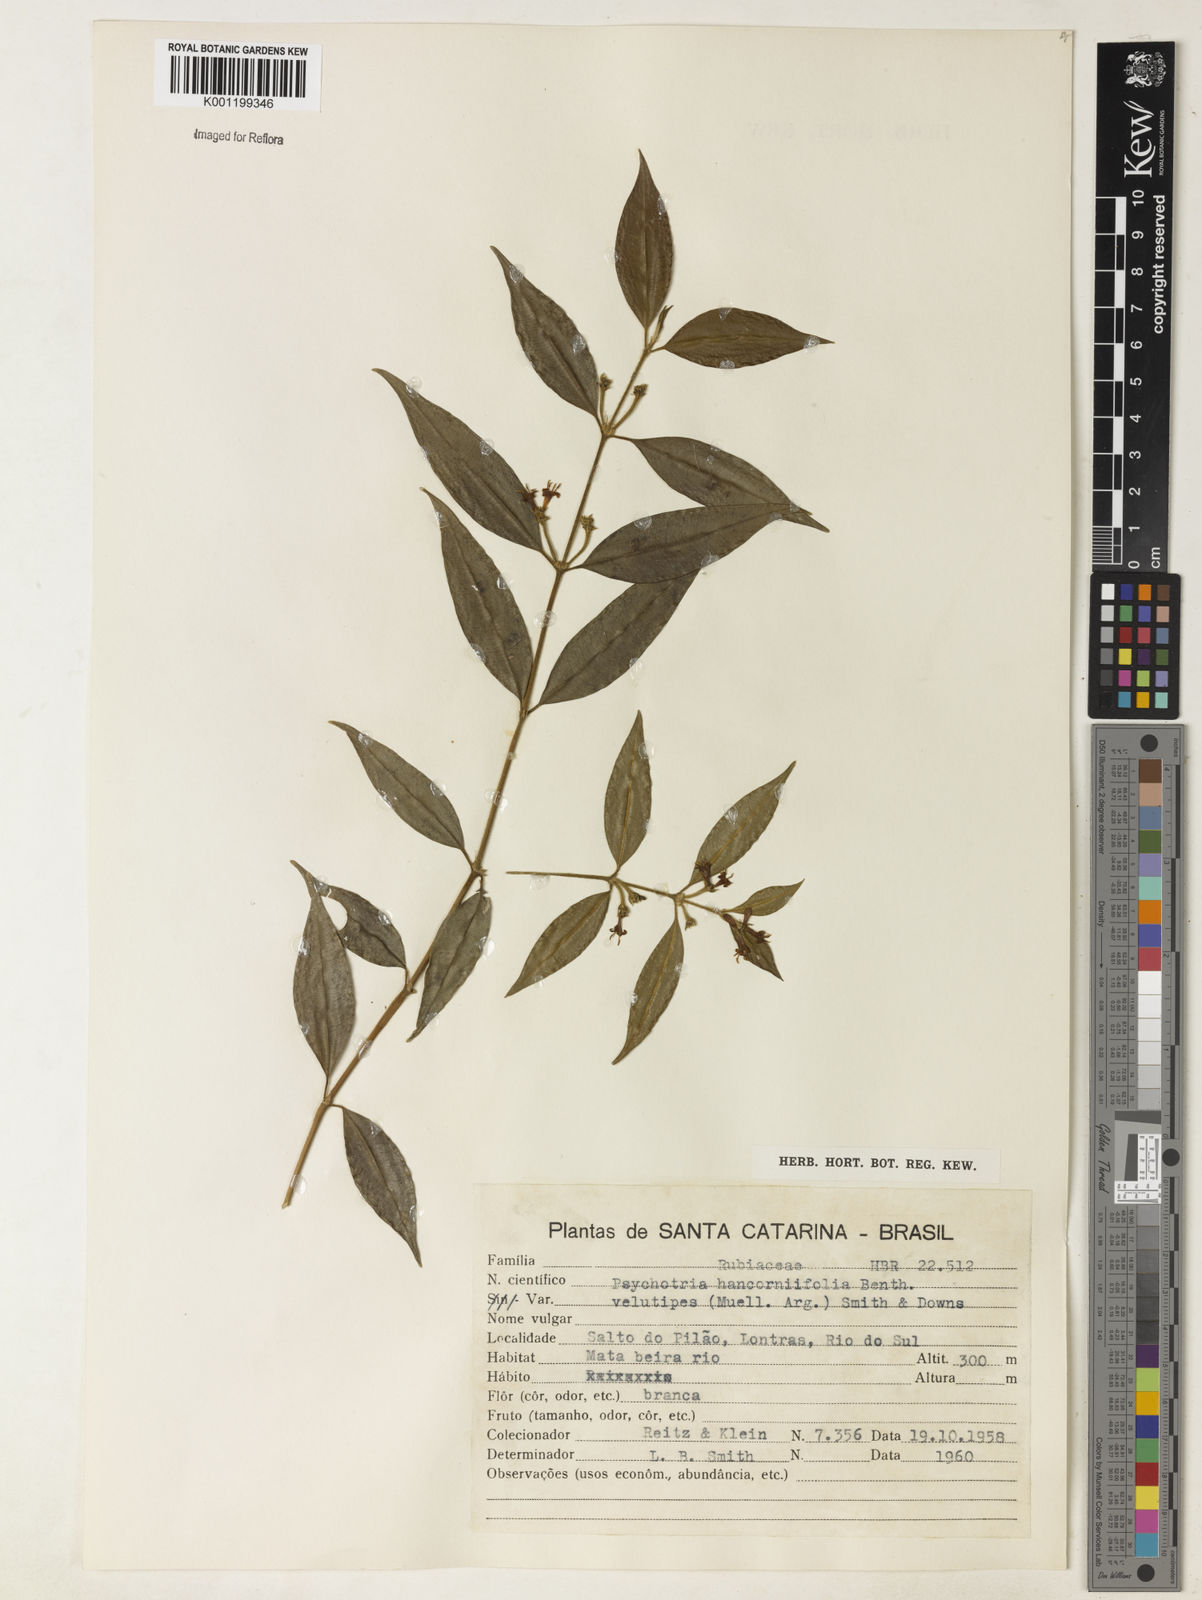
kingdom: Plantae
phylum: Tracheophyta
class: Magnoliopsida
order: Gentianales
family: Rubiaceae
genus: Rudgea
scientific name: Rudgea sessilis
